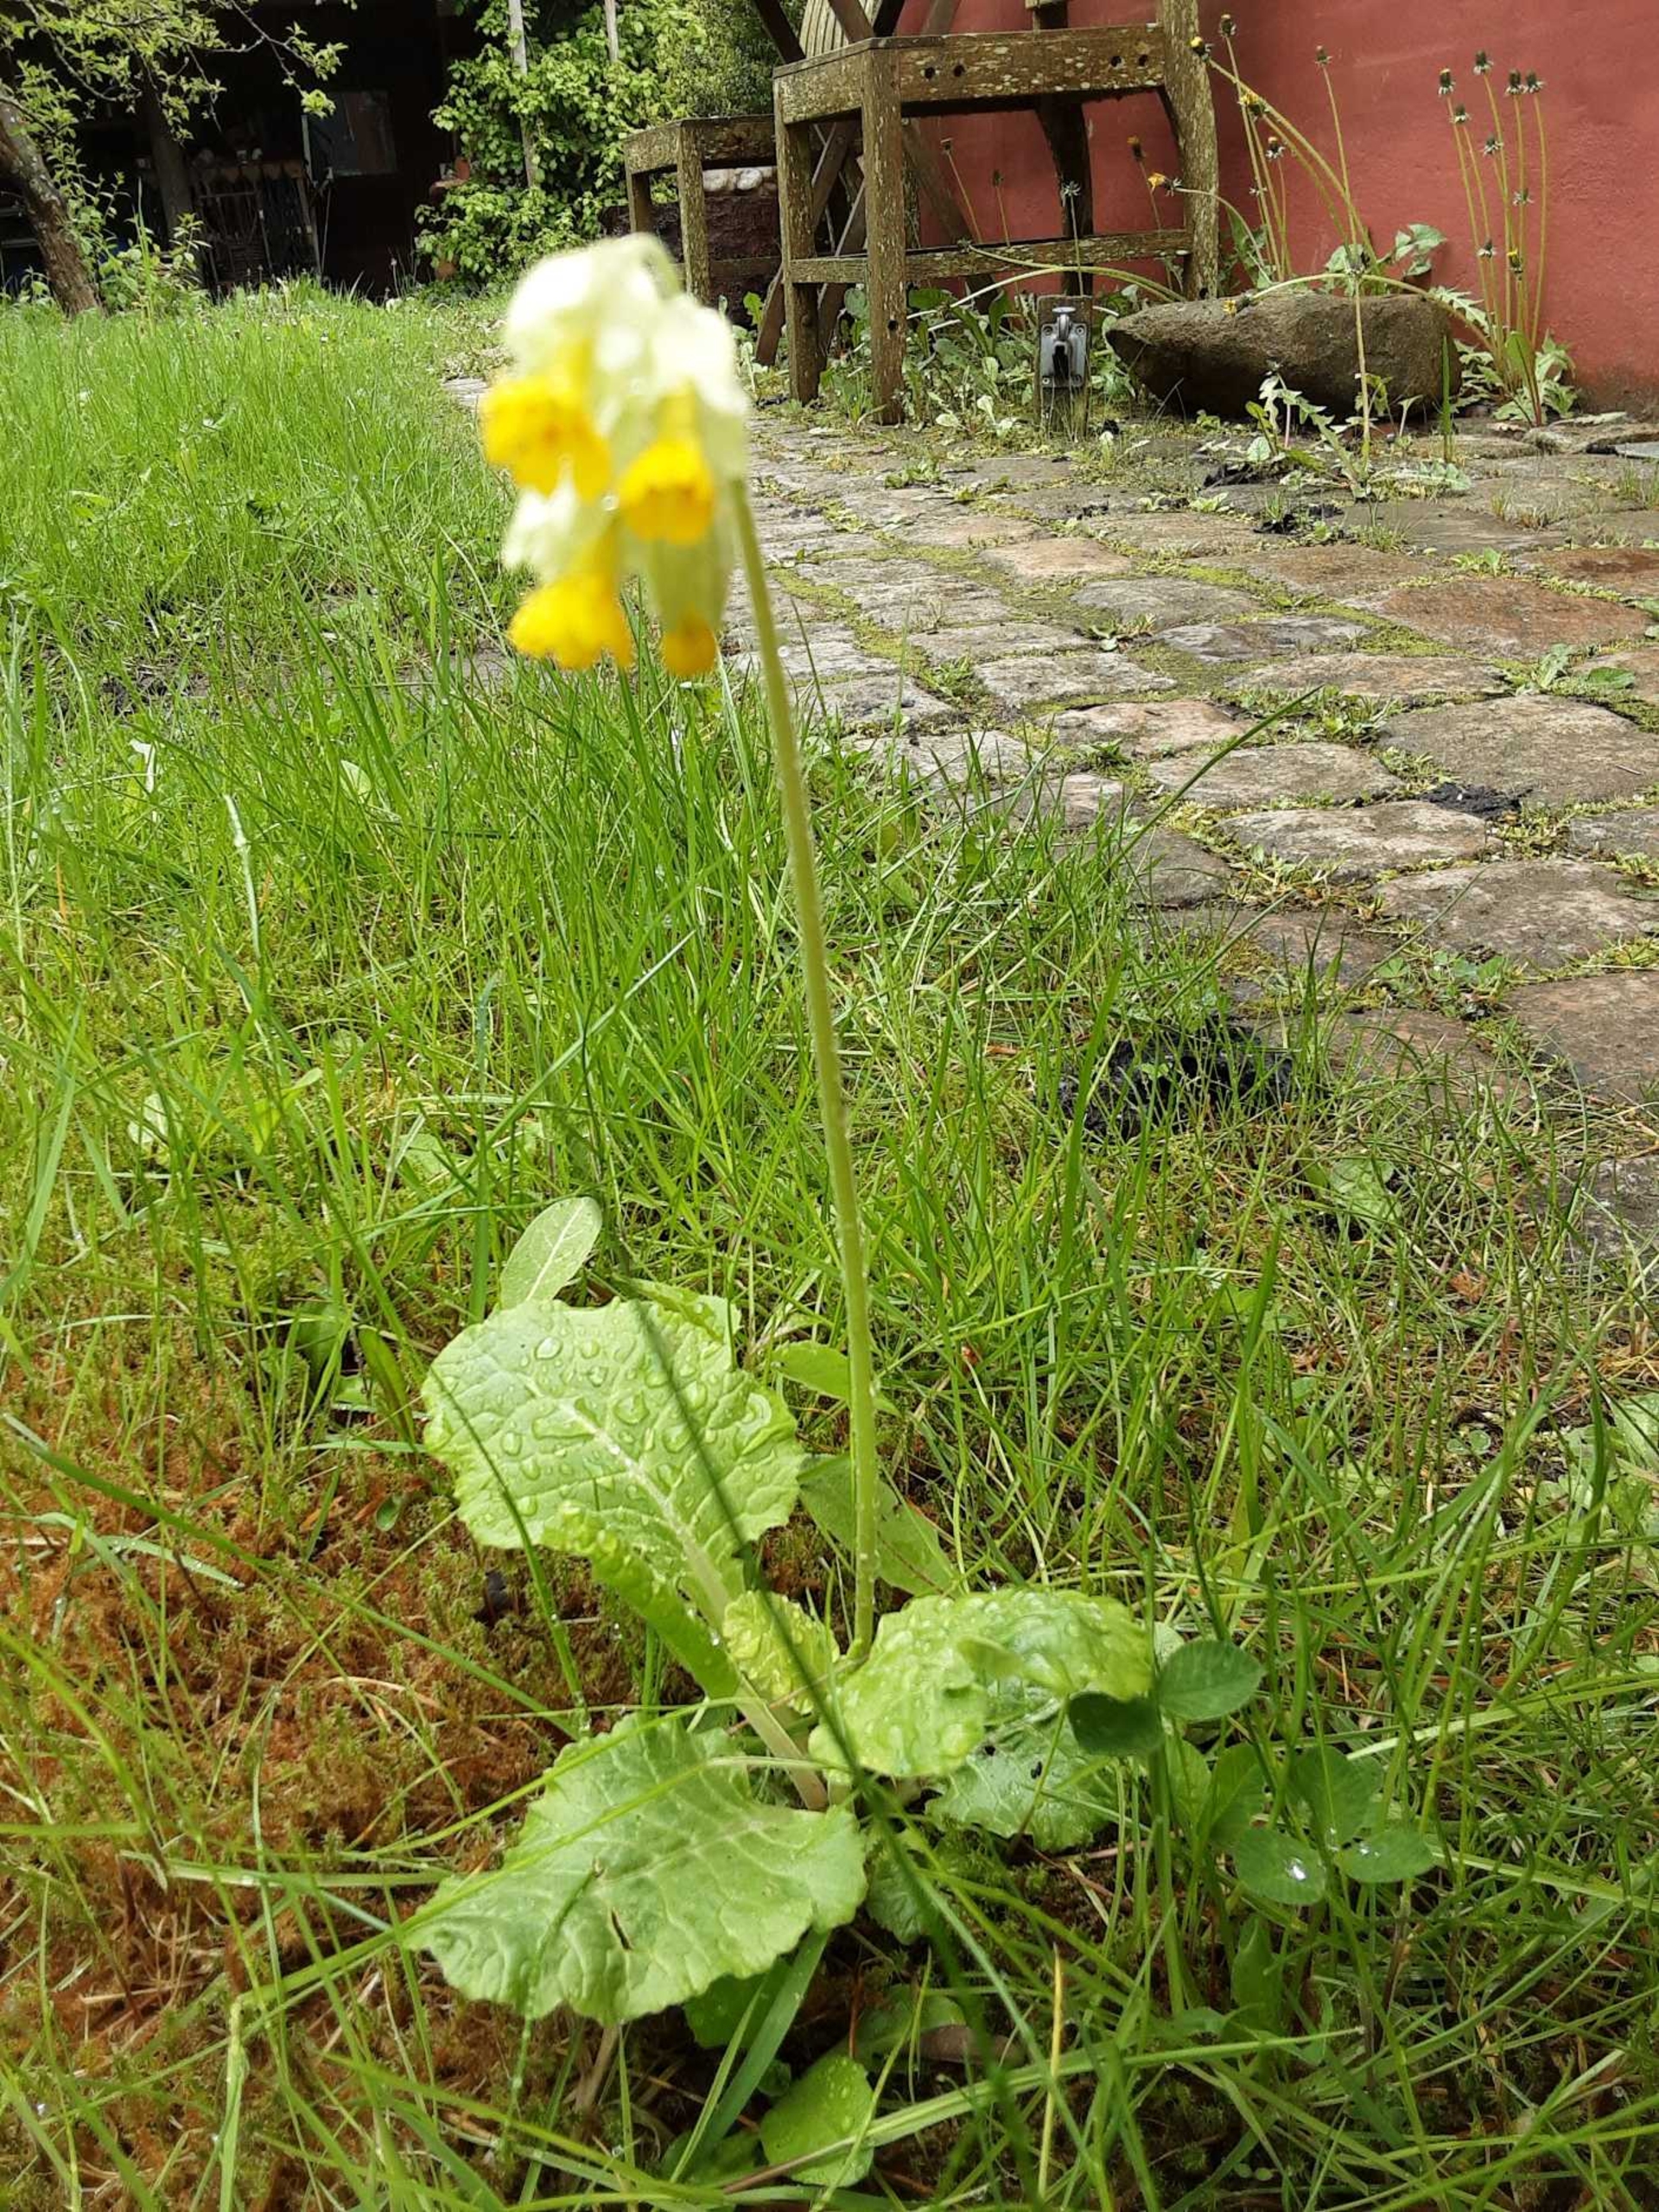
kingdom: Plantae
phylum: Tracheophyta
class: Magnoliopsida
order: Ericales
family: Primulaceae
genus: Primula
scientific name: Primula veris
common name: Hulkravet kodriver
